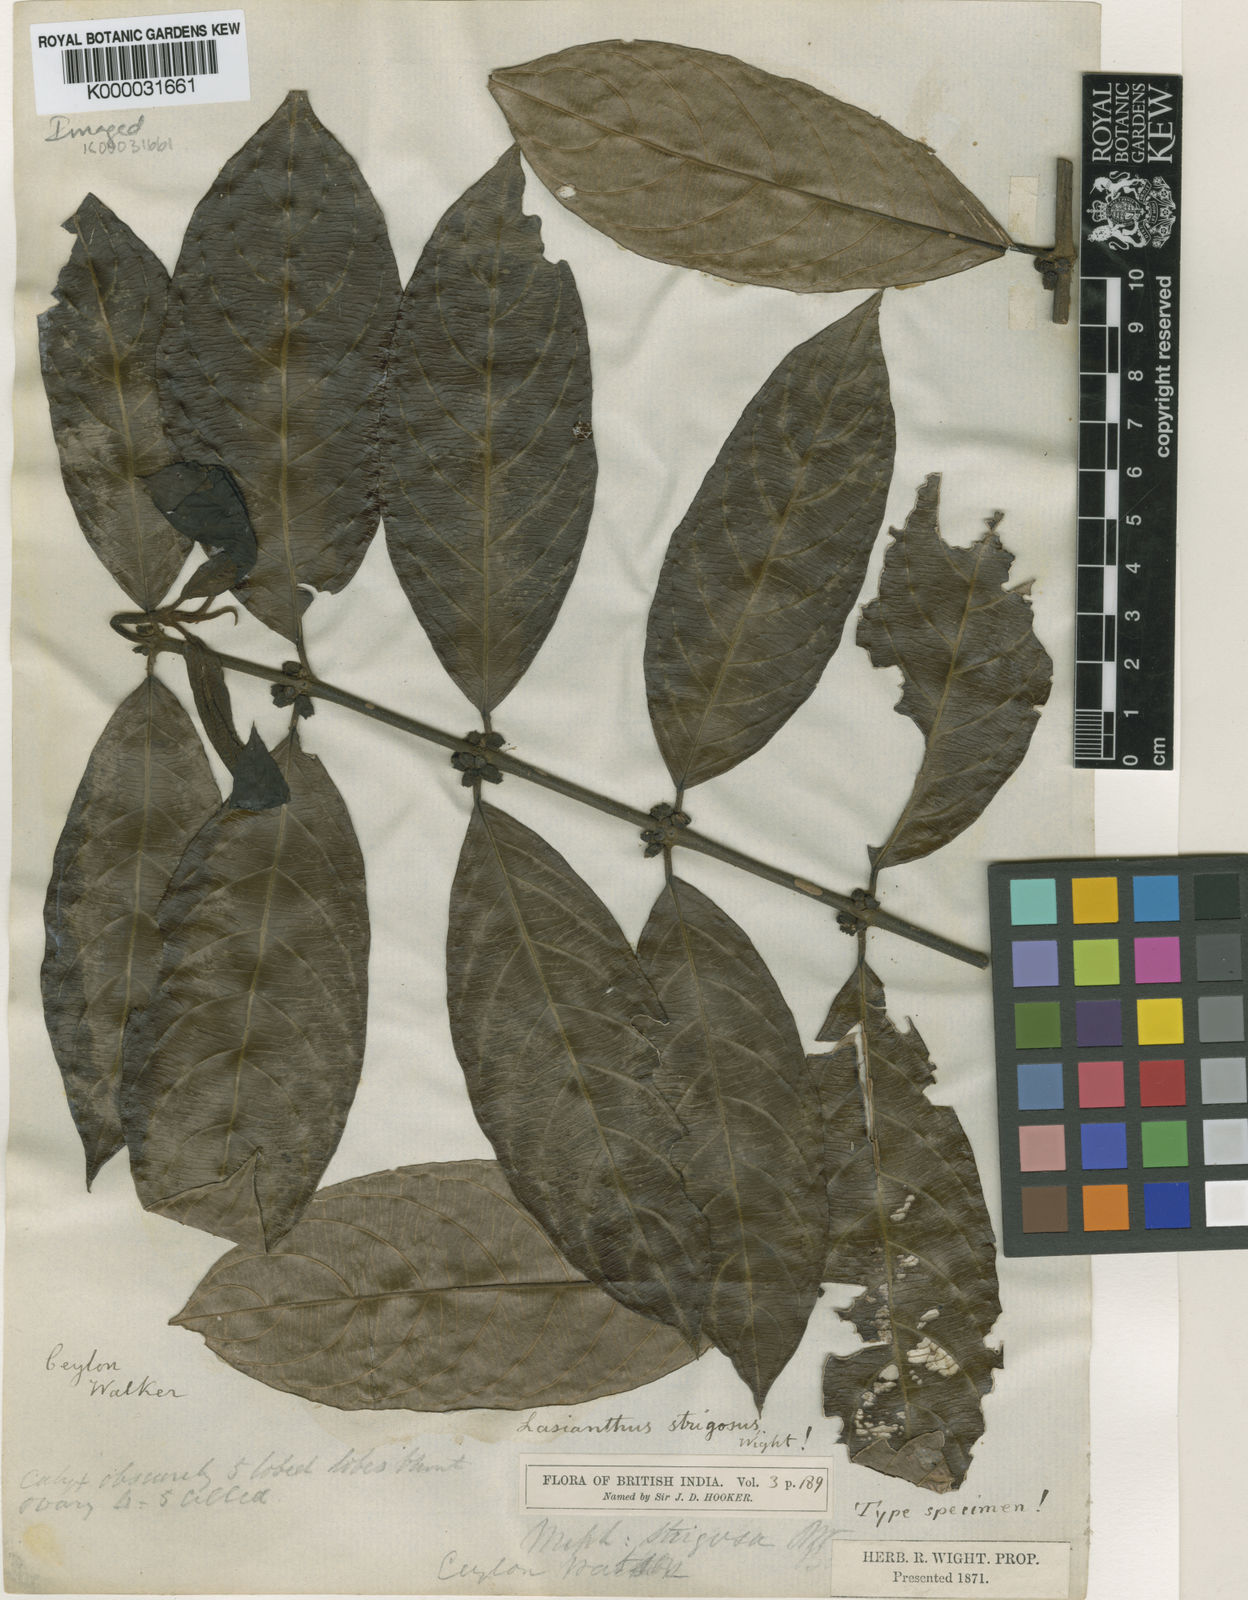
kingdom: Plantae
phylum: Tracheophyta
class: Magnoliopsida
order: Gentianales
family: Rubiaceae
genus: Lasianthus
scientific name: Lasianthus strigosus
